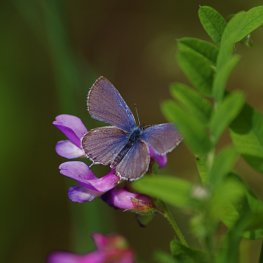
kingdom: Animalia
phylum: Arthropoda
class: Insecta
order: Lepidoptera
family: Lycaenidae
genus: Elkalyce
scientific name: Elkalyce amyntula
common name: Western Tailed-Blue
